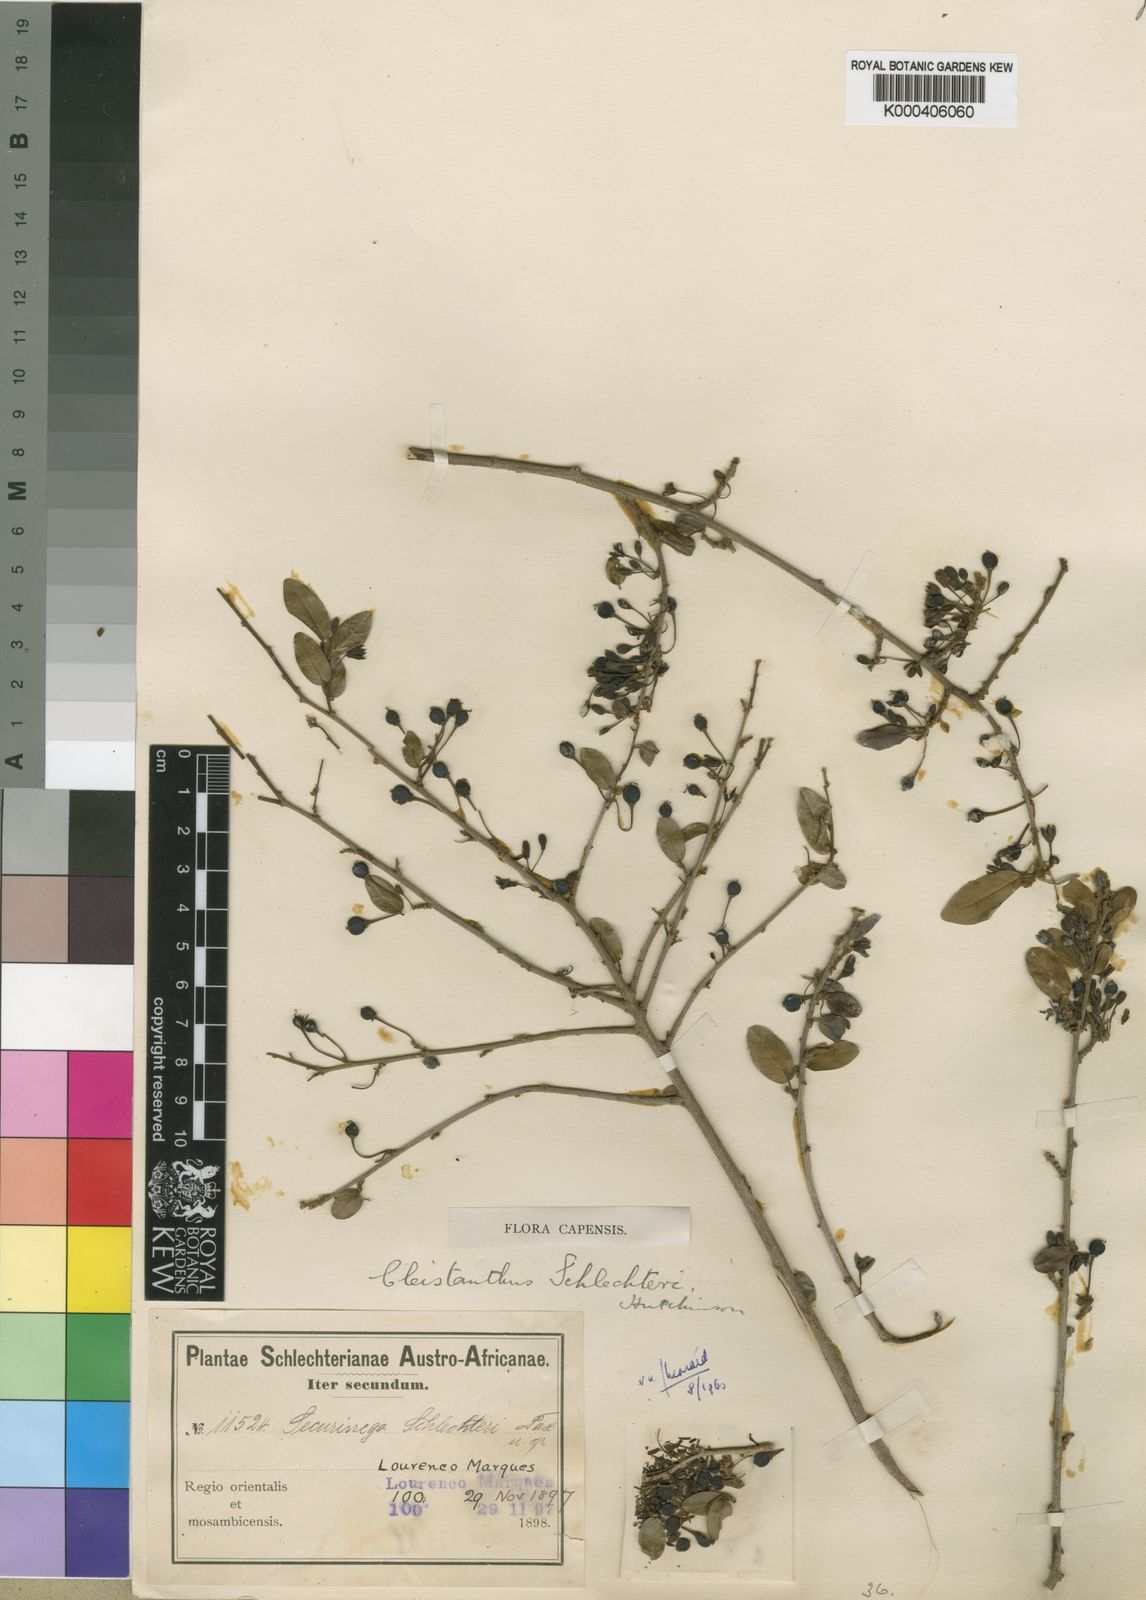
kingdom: Plantae
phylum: Tracheophyta
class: Magnoliopsida
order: Malpighiales
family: Phyllanthaceae
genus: Cleistanthus
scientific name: Cleistanthus schlechteri
